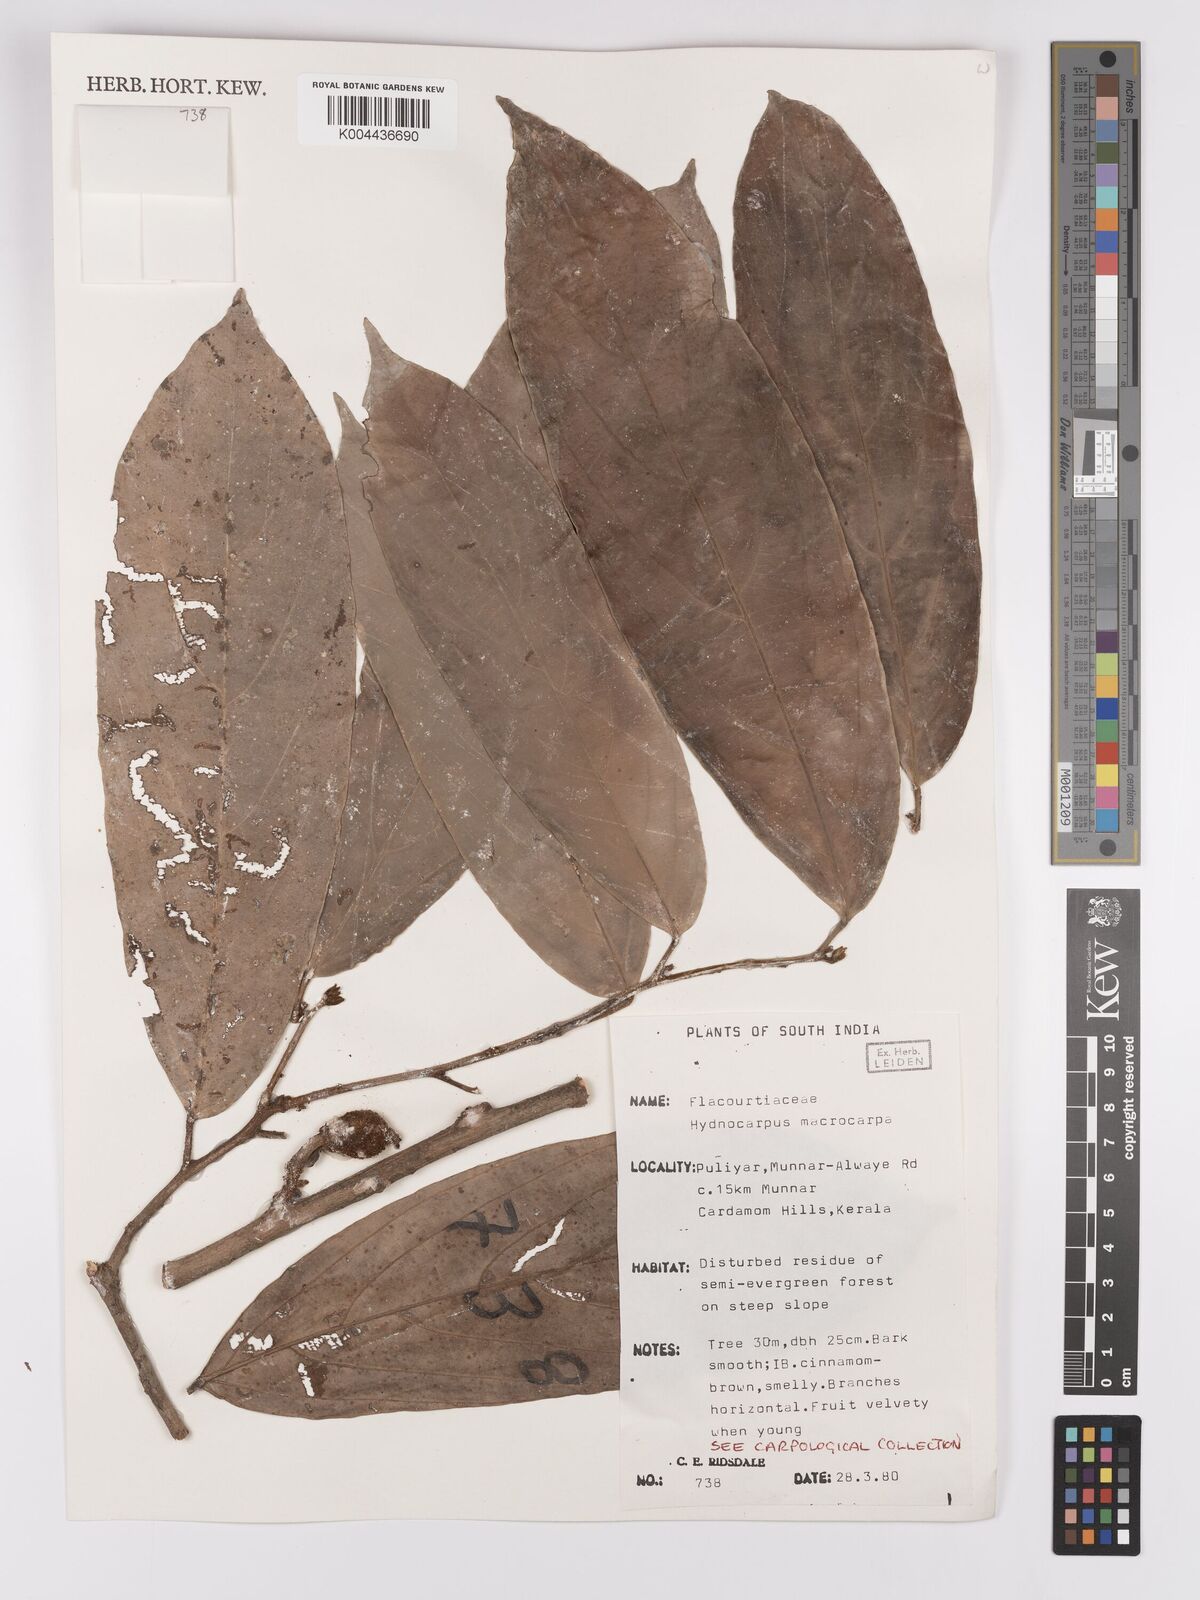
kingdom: Plantae
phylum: Tracheophyta
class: Magnoliopsida
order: Malpighiales
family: Achariaceae
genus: Hydnocarpus
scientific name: Hydnocarpus macrocarpus
